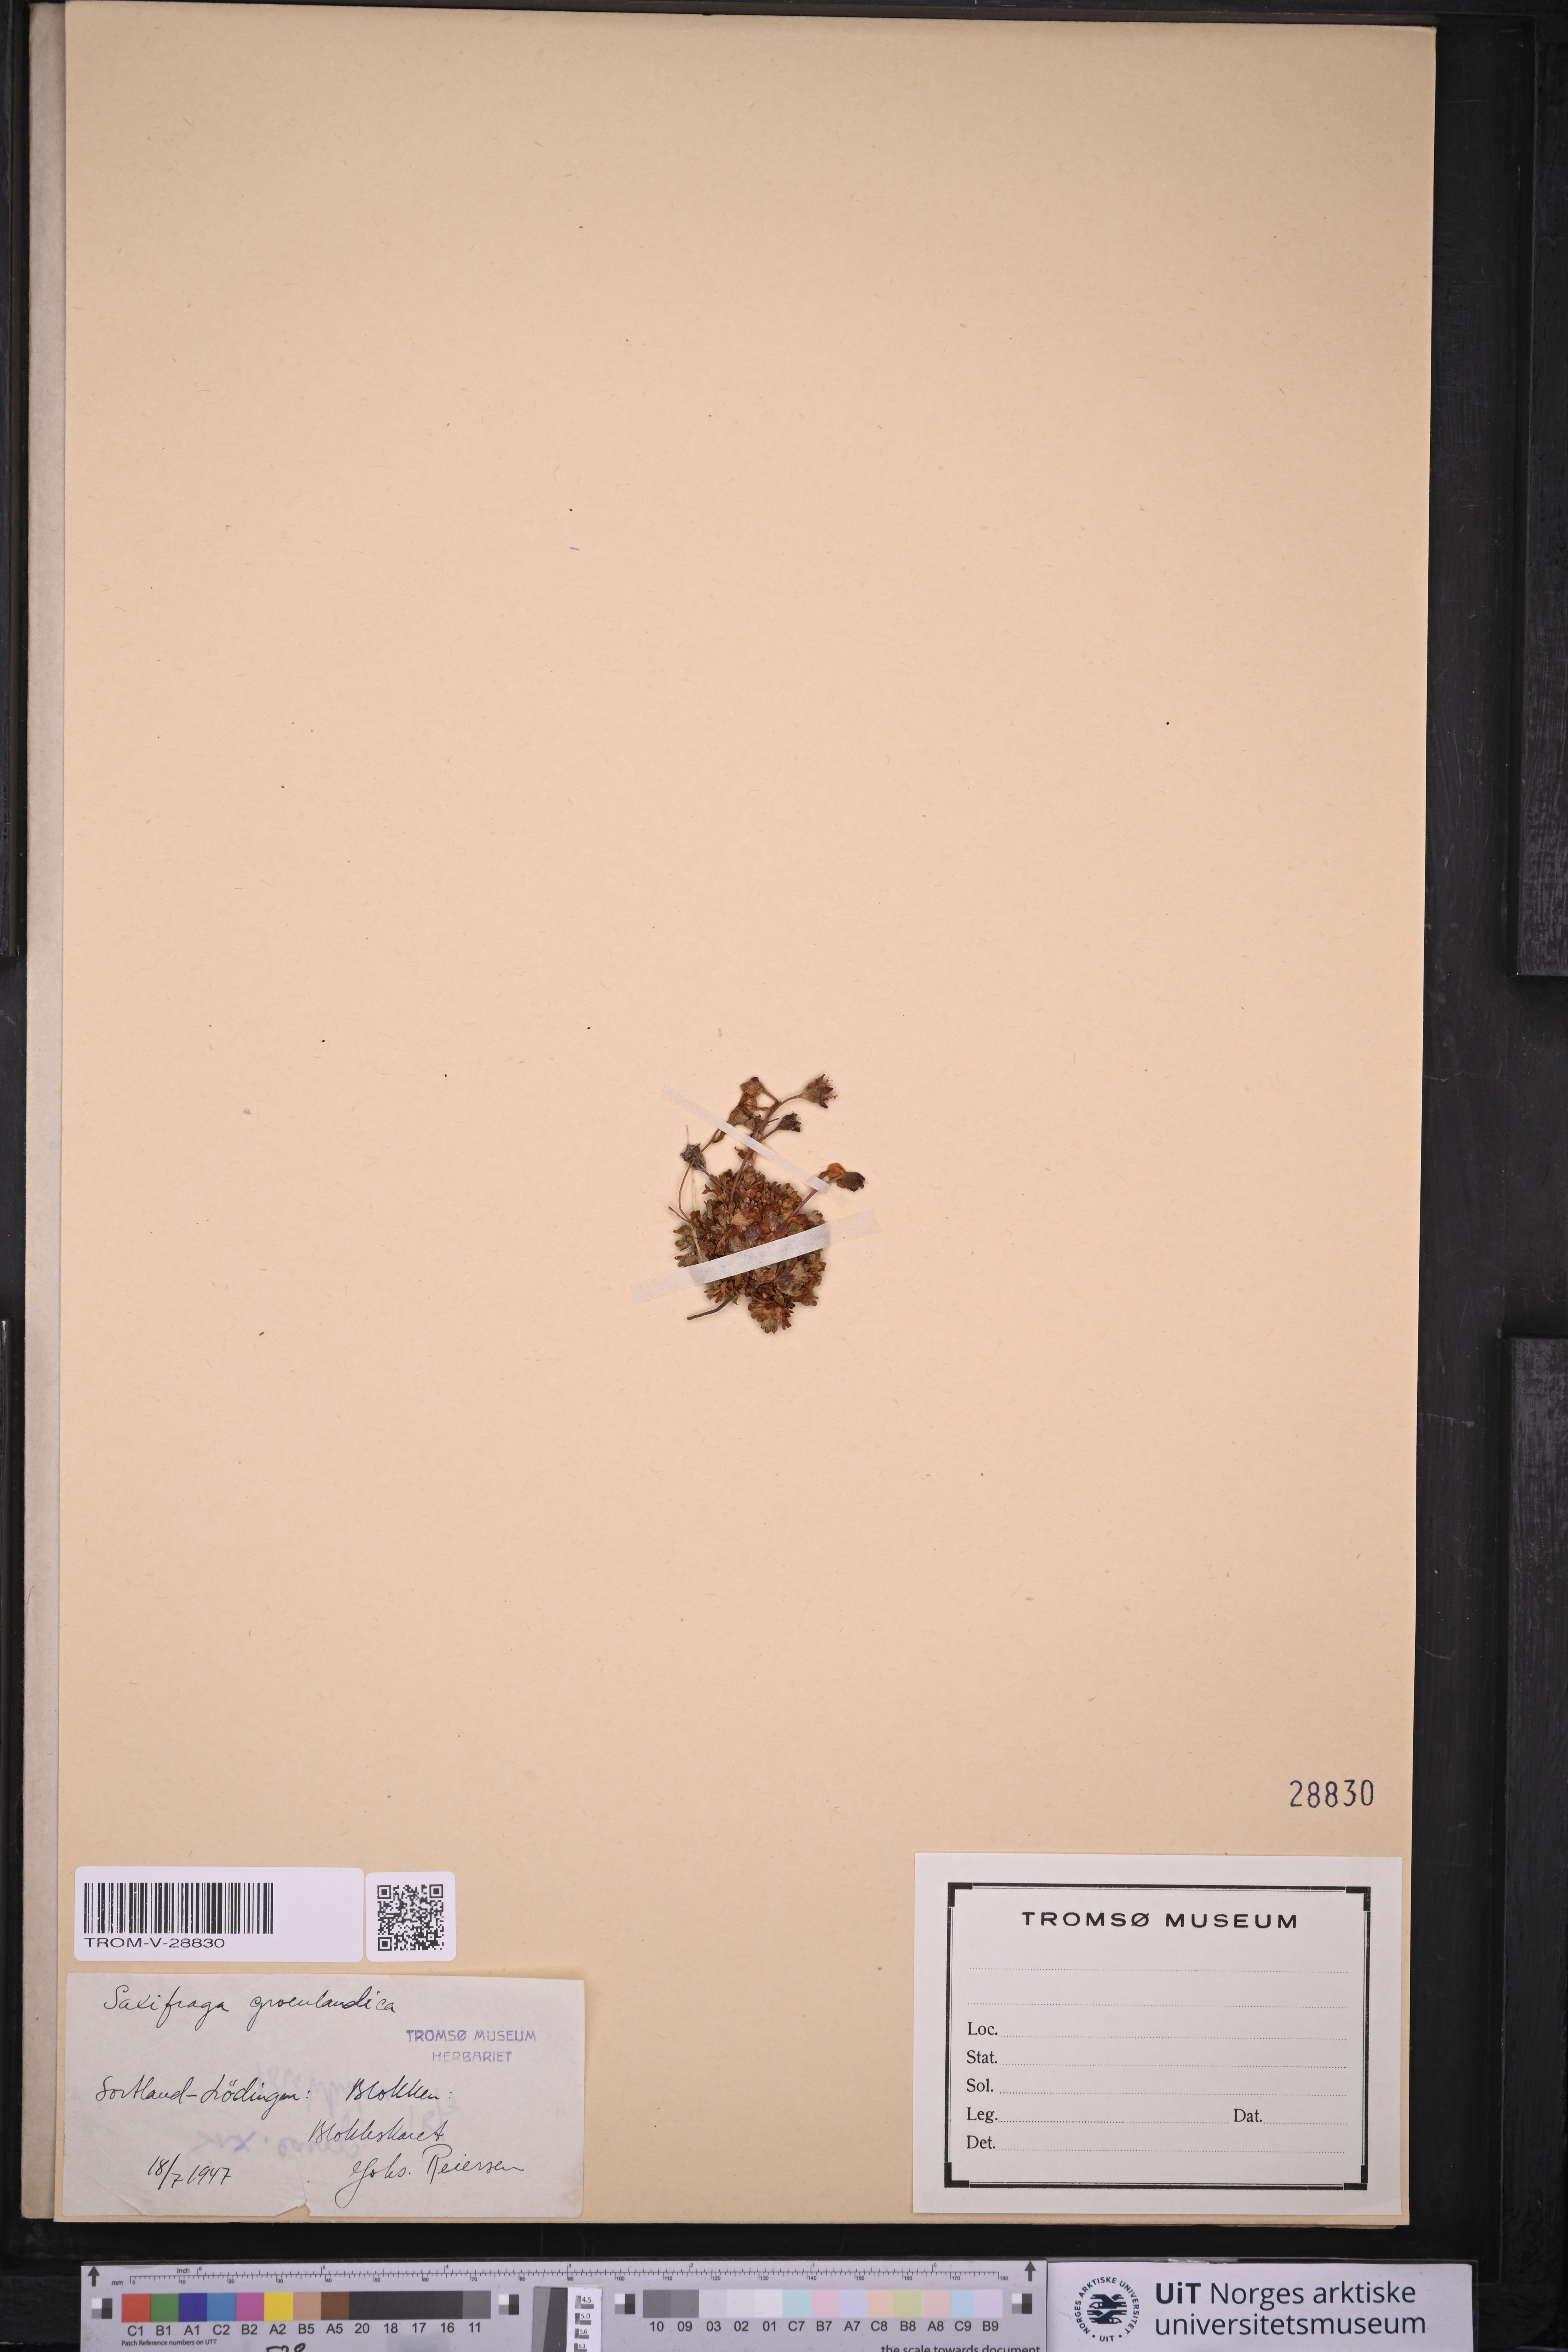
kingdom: Plantae
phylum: Tracheophyta
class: Magnoliopsida
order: Saxifragales
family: Saxifragaceae
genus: Saxifraga
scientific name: Saxifraga cespitosa
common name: Tufted saxifrage
